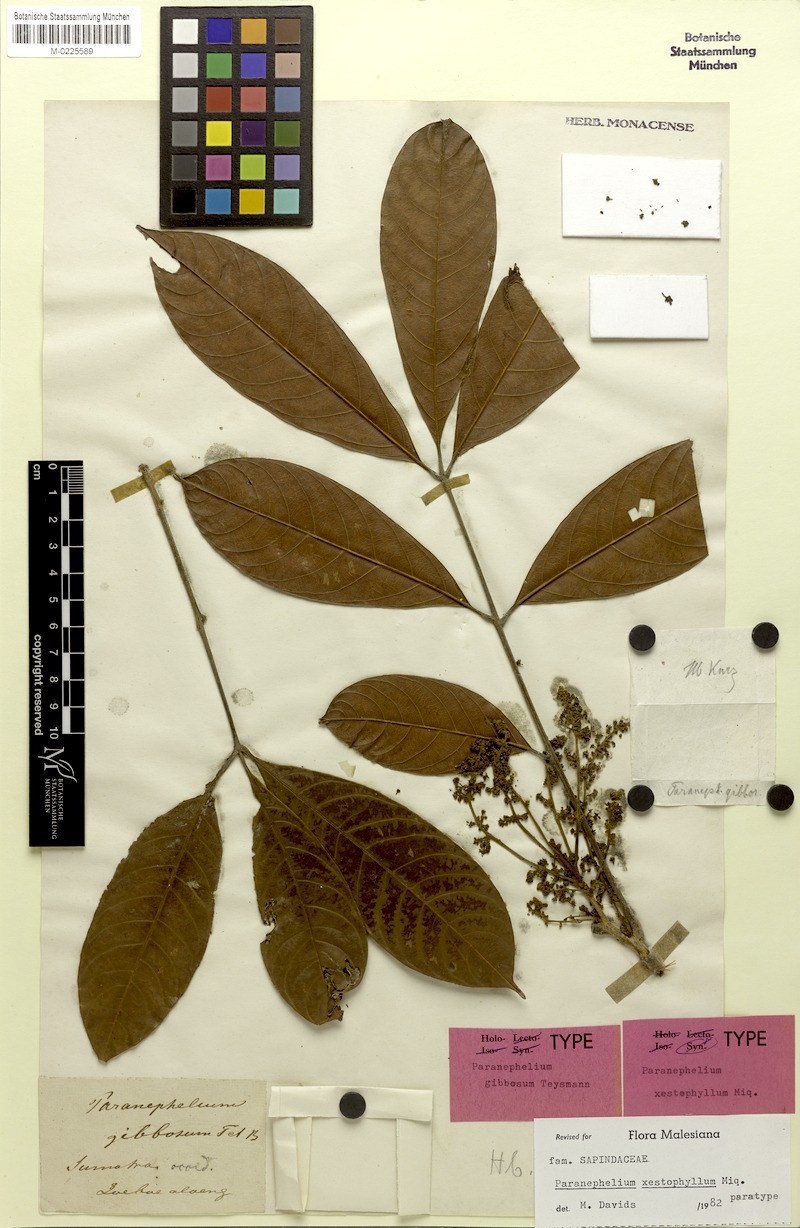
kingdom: Plantae
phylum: Tracheophyta
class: Magnoliopsida
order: Sapindales
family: Sapindaceae
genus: Paranephelium
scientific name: Paranephelium xestophyllum
